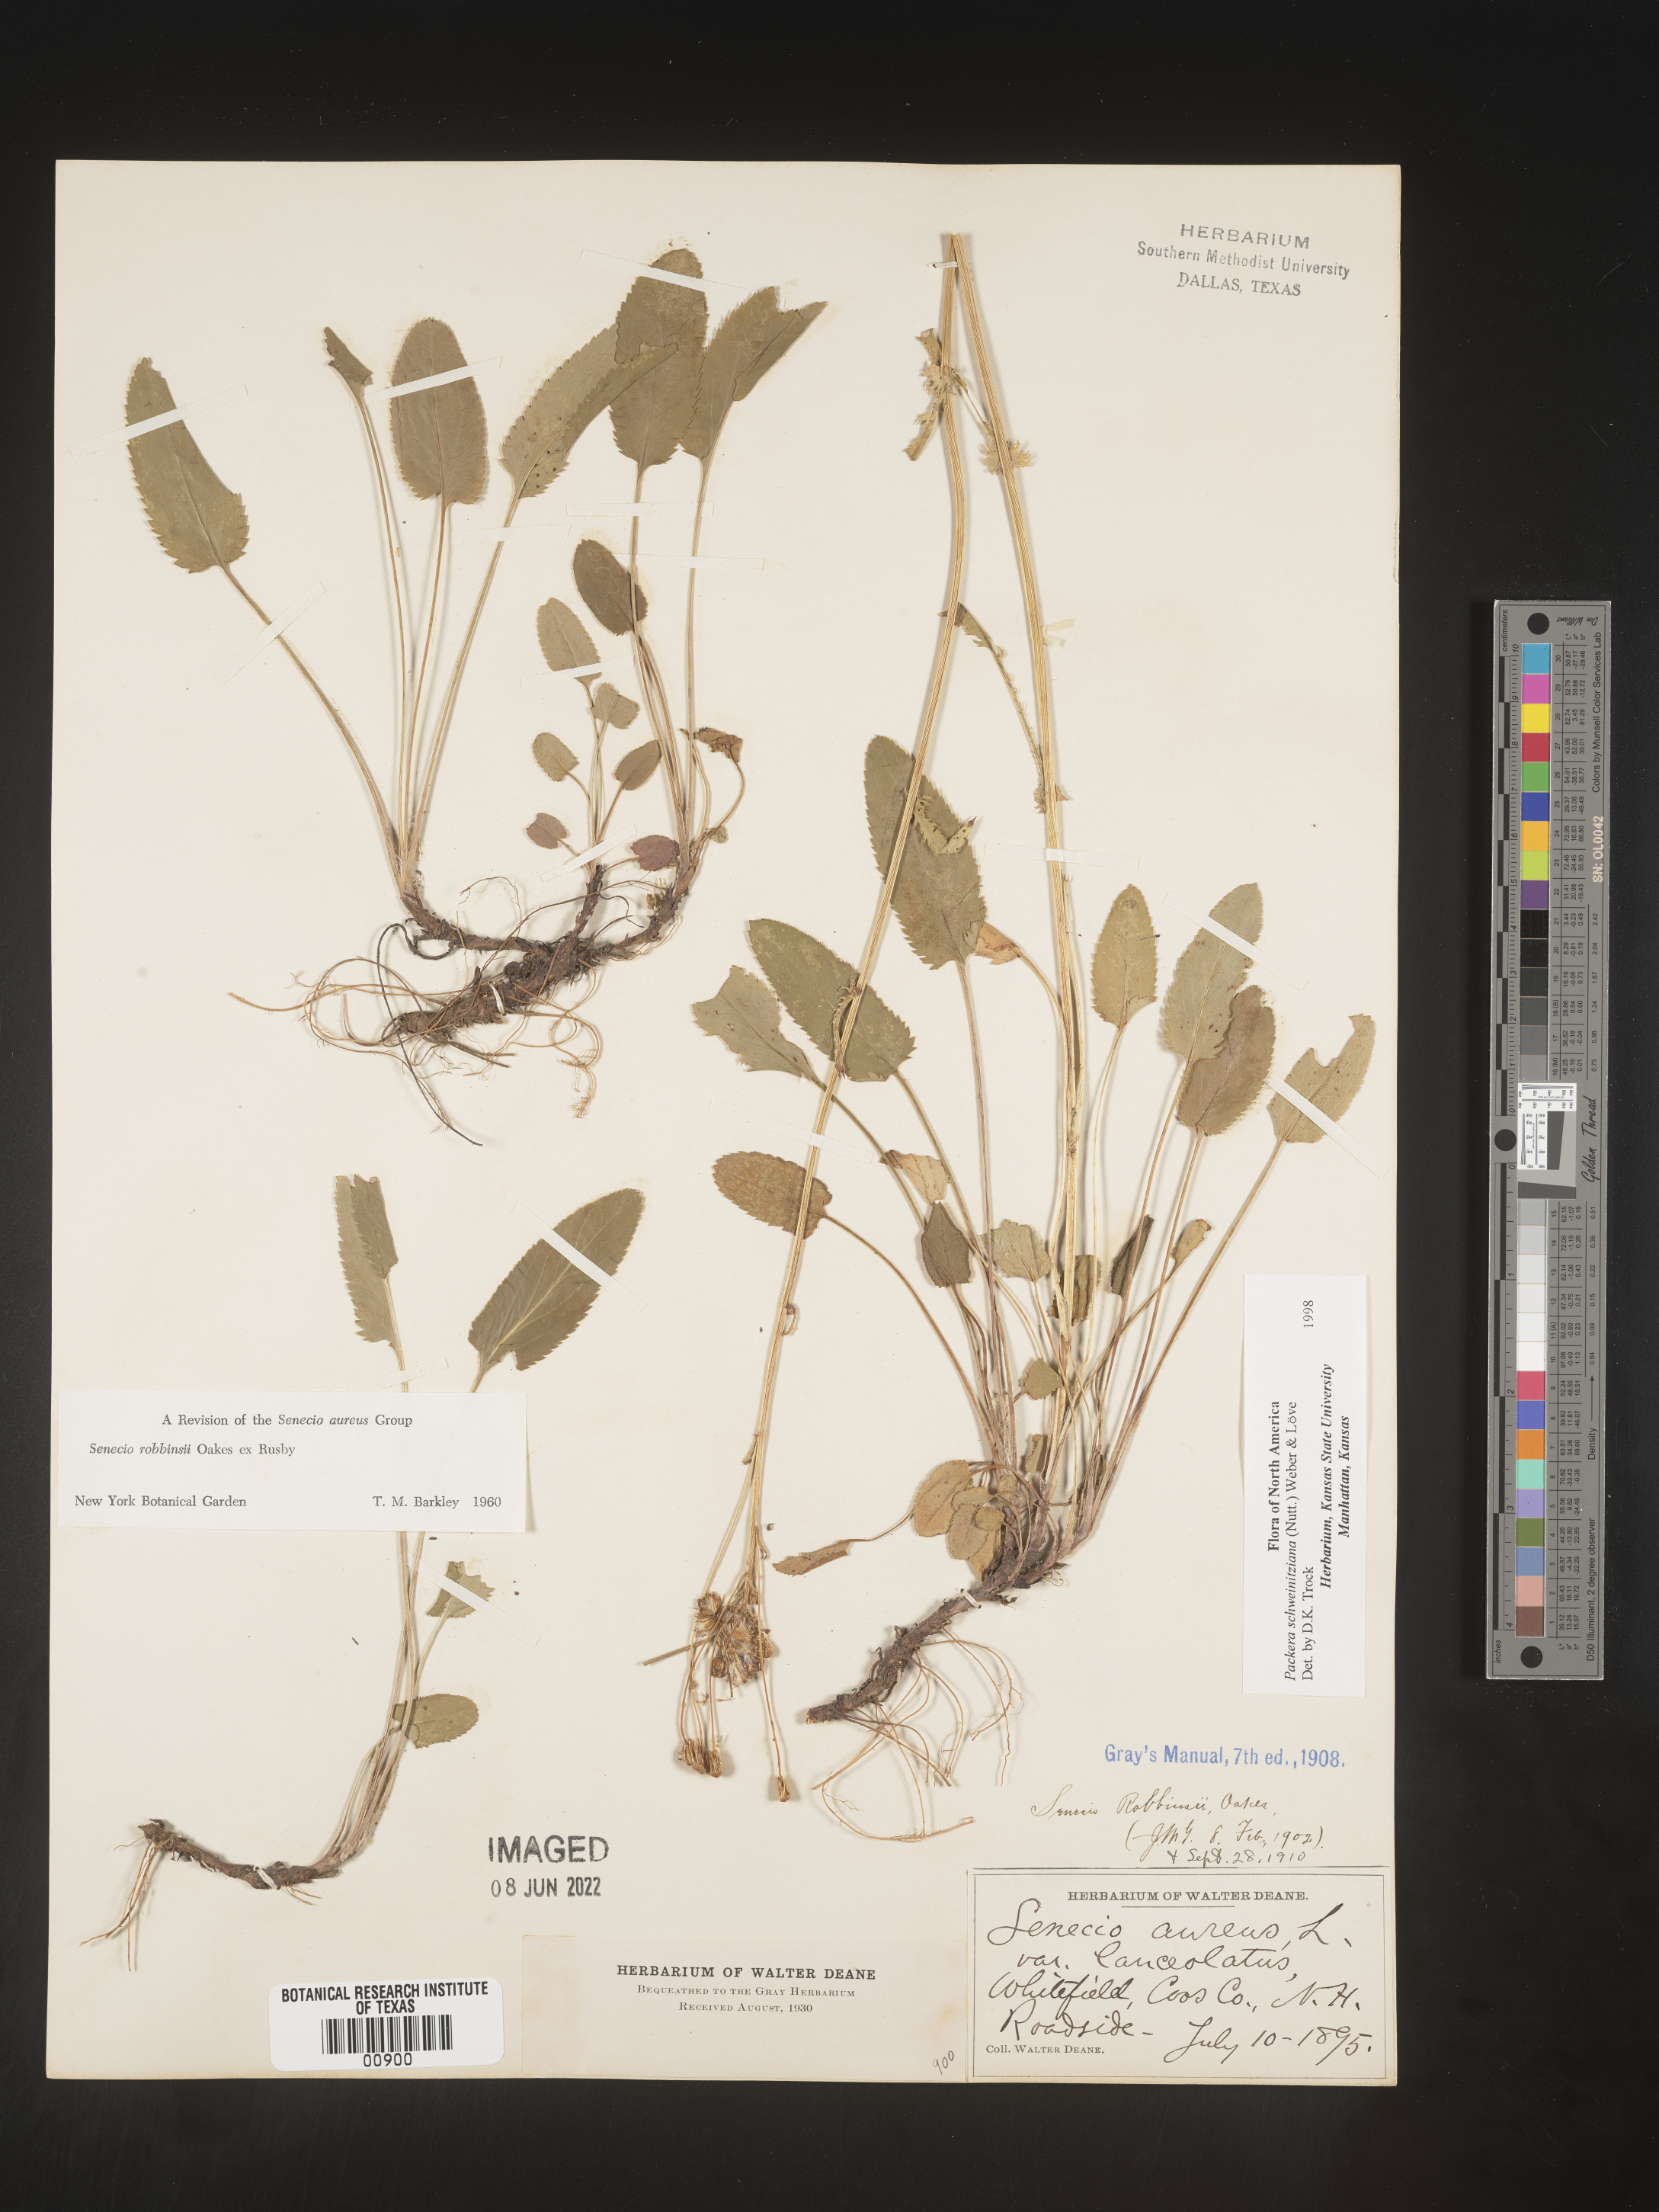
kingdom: Plantae
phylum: Tracheophyta
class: Magnoliopsida
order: Asterales
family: Asteraceae
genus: Packera
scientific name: Packera schweinitziana
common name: Schweinitz's ragwort
